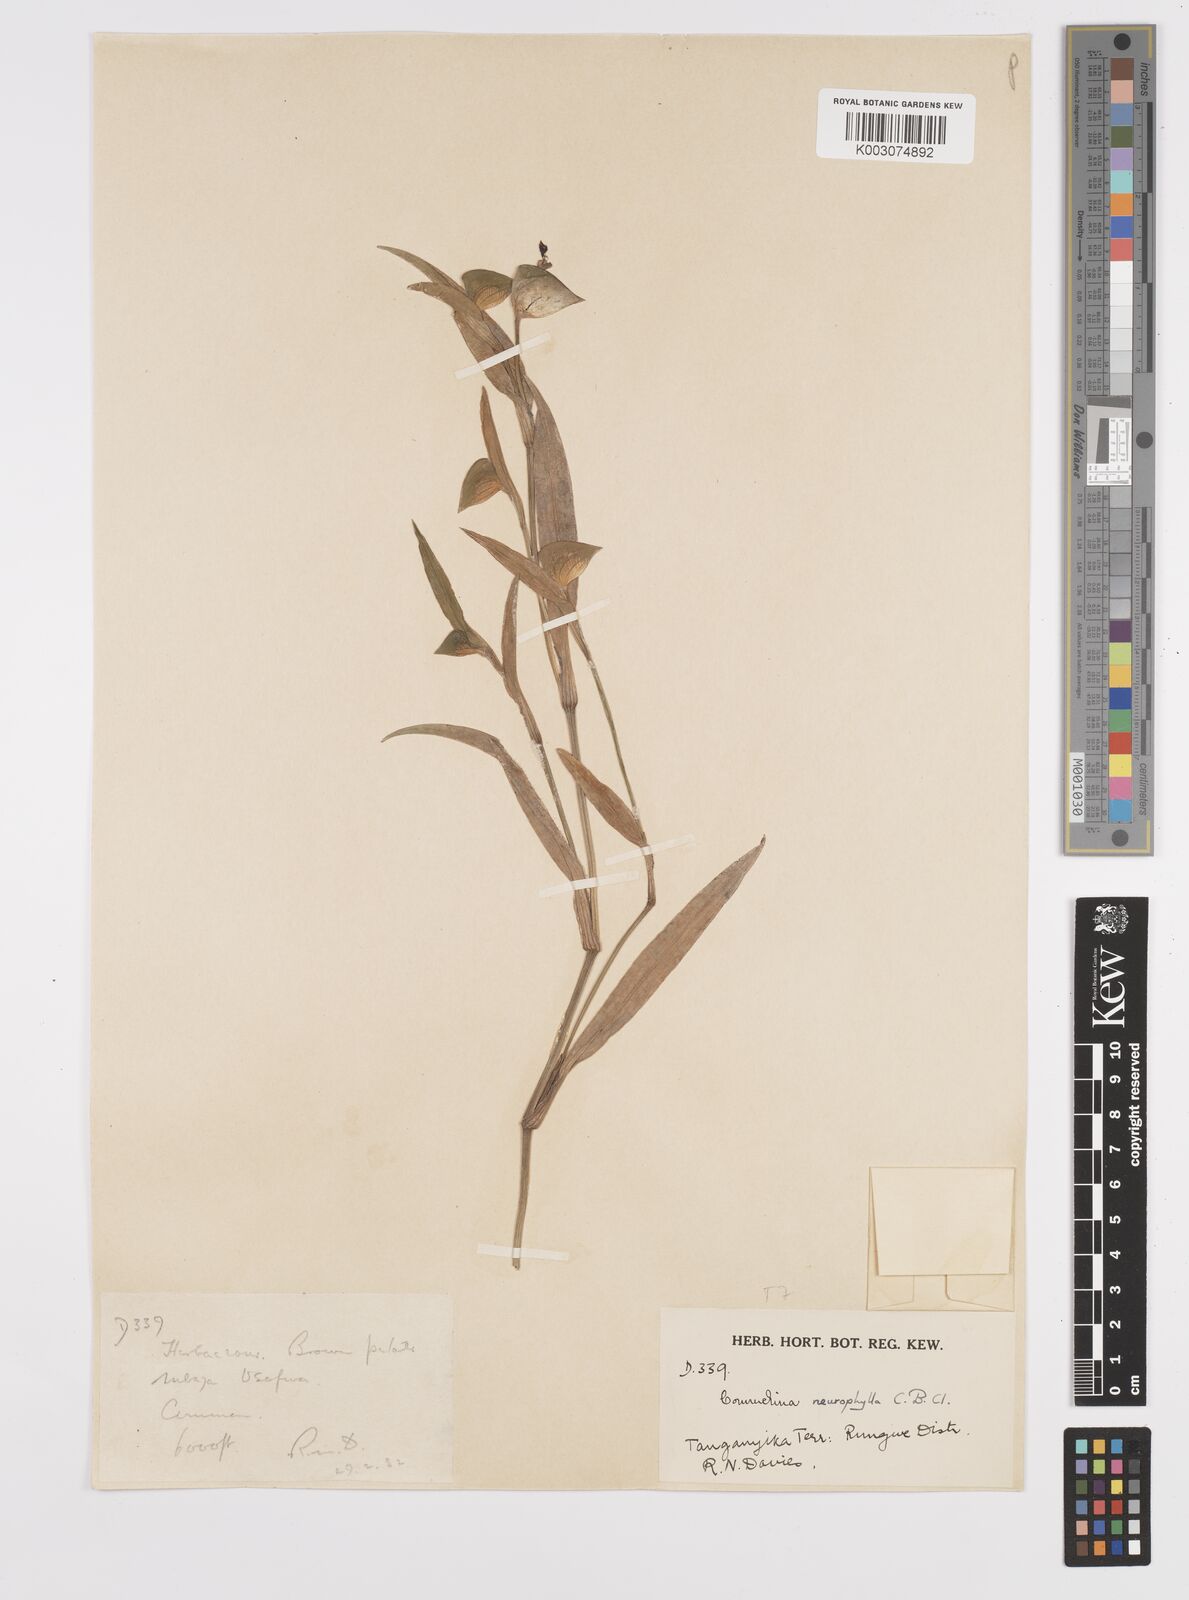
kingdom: Plantae
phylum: Tracheophyta
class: Liliopsida
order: Commelinales
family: Commelinaceae
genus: Commelina
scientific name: Commelina neurophylla
